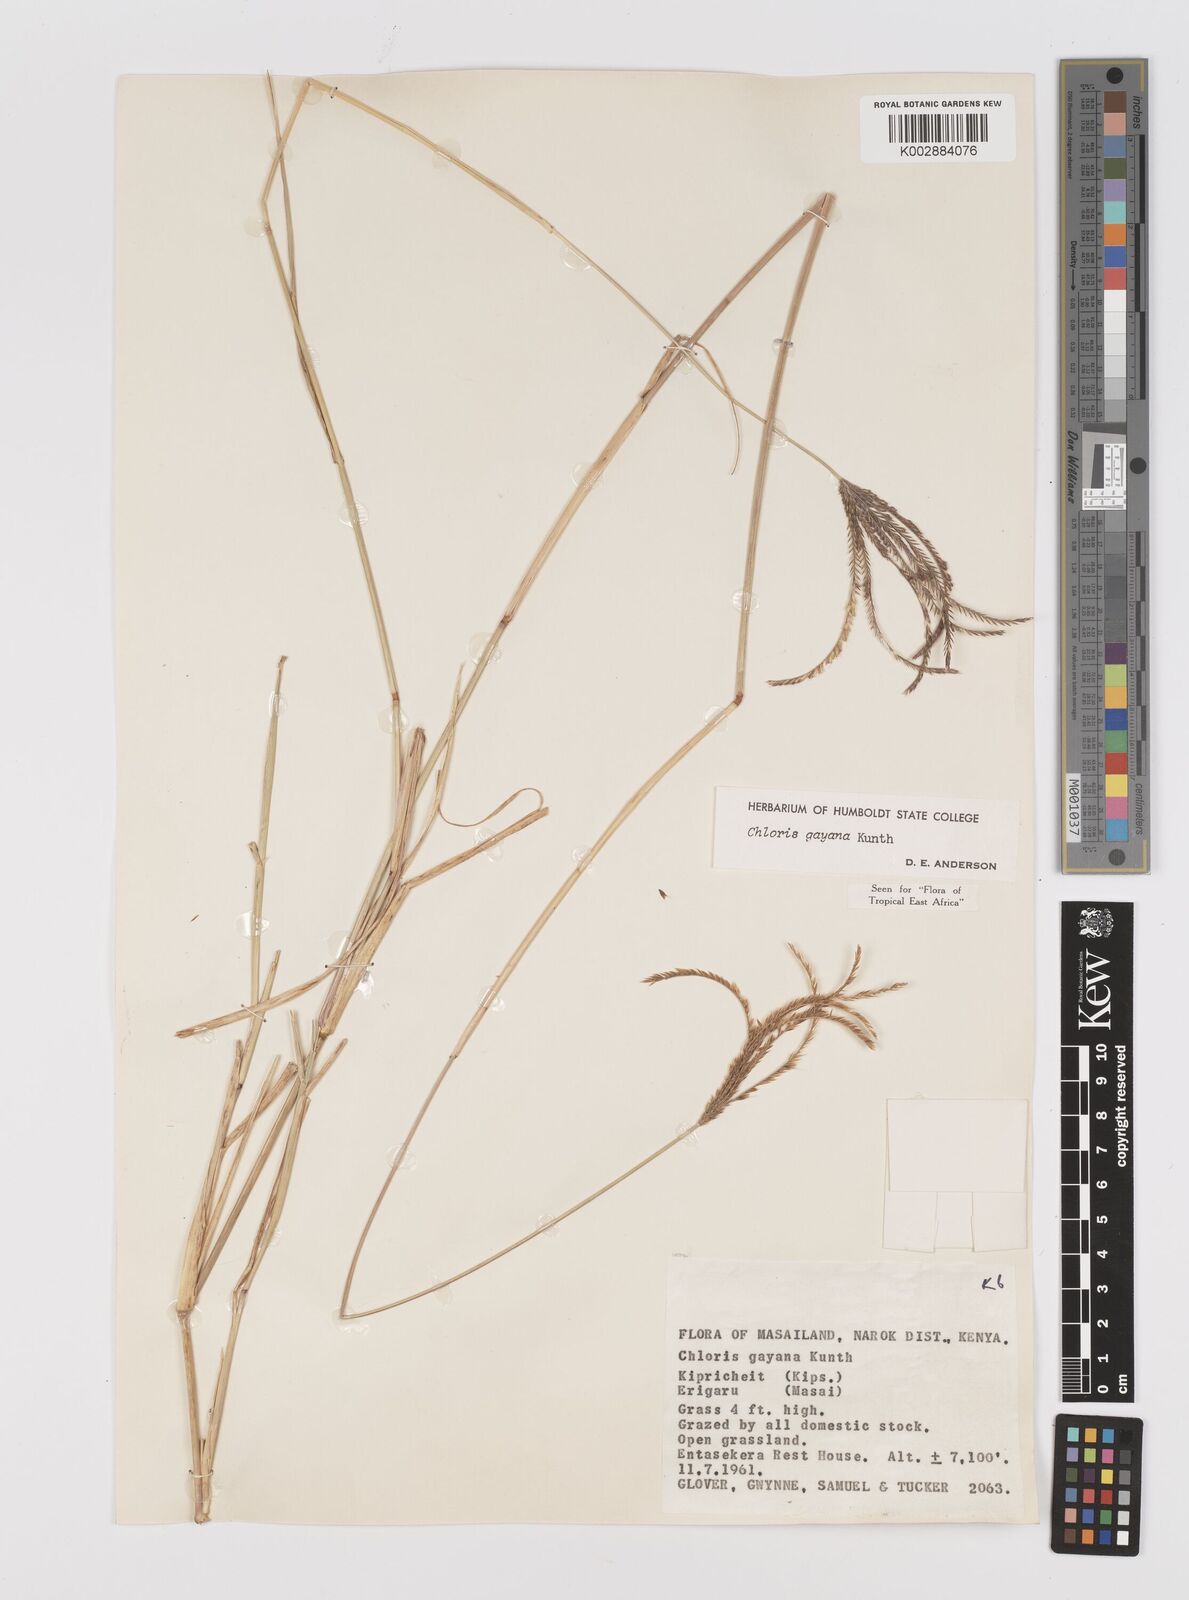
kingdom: Plantae
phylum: Tracheophyta
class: Liliopsida
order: Poales
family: Poaceae
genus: Chloris
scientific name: Chloris gayana
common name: Rhodes grass
